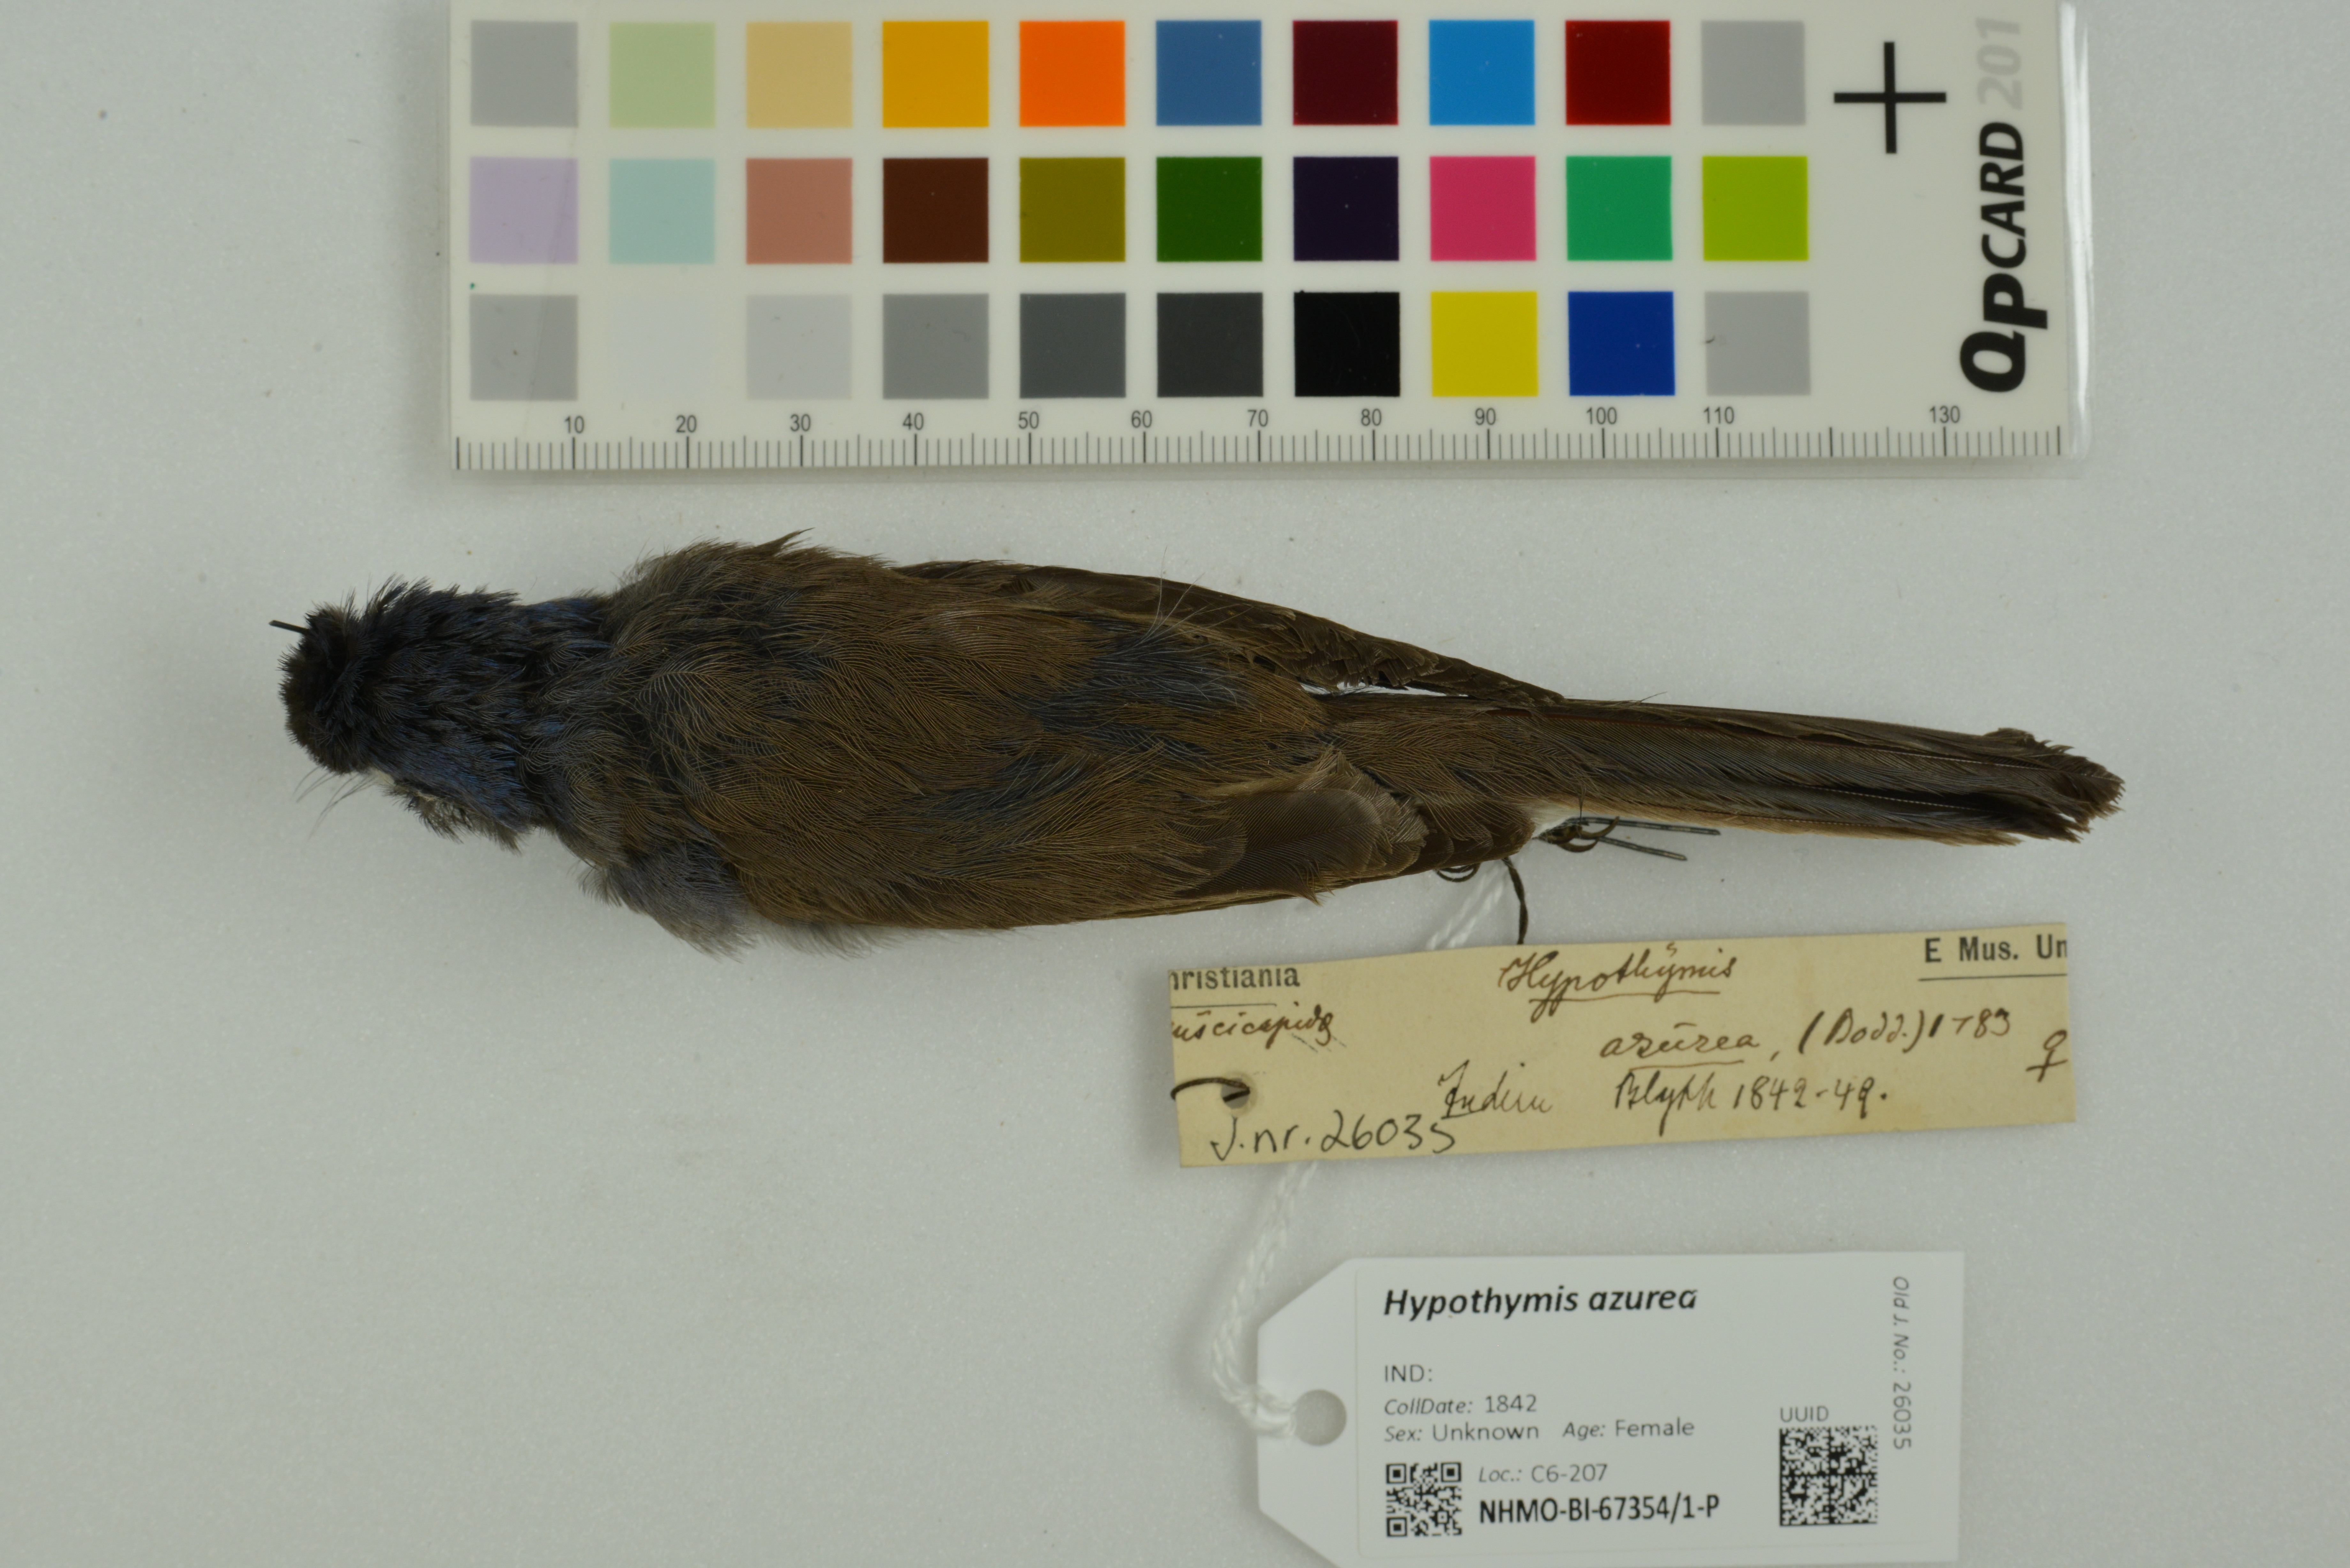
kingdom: Animalia
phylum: Chordata
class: Aves
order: Passeriformes
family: Monarchidae
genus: Hypothymis
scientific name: Hypothymis azurea
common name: Black-naped monarch
